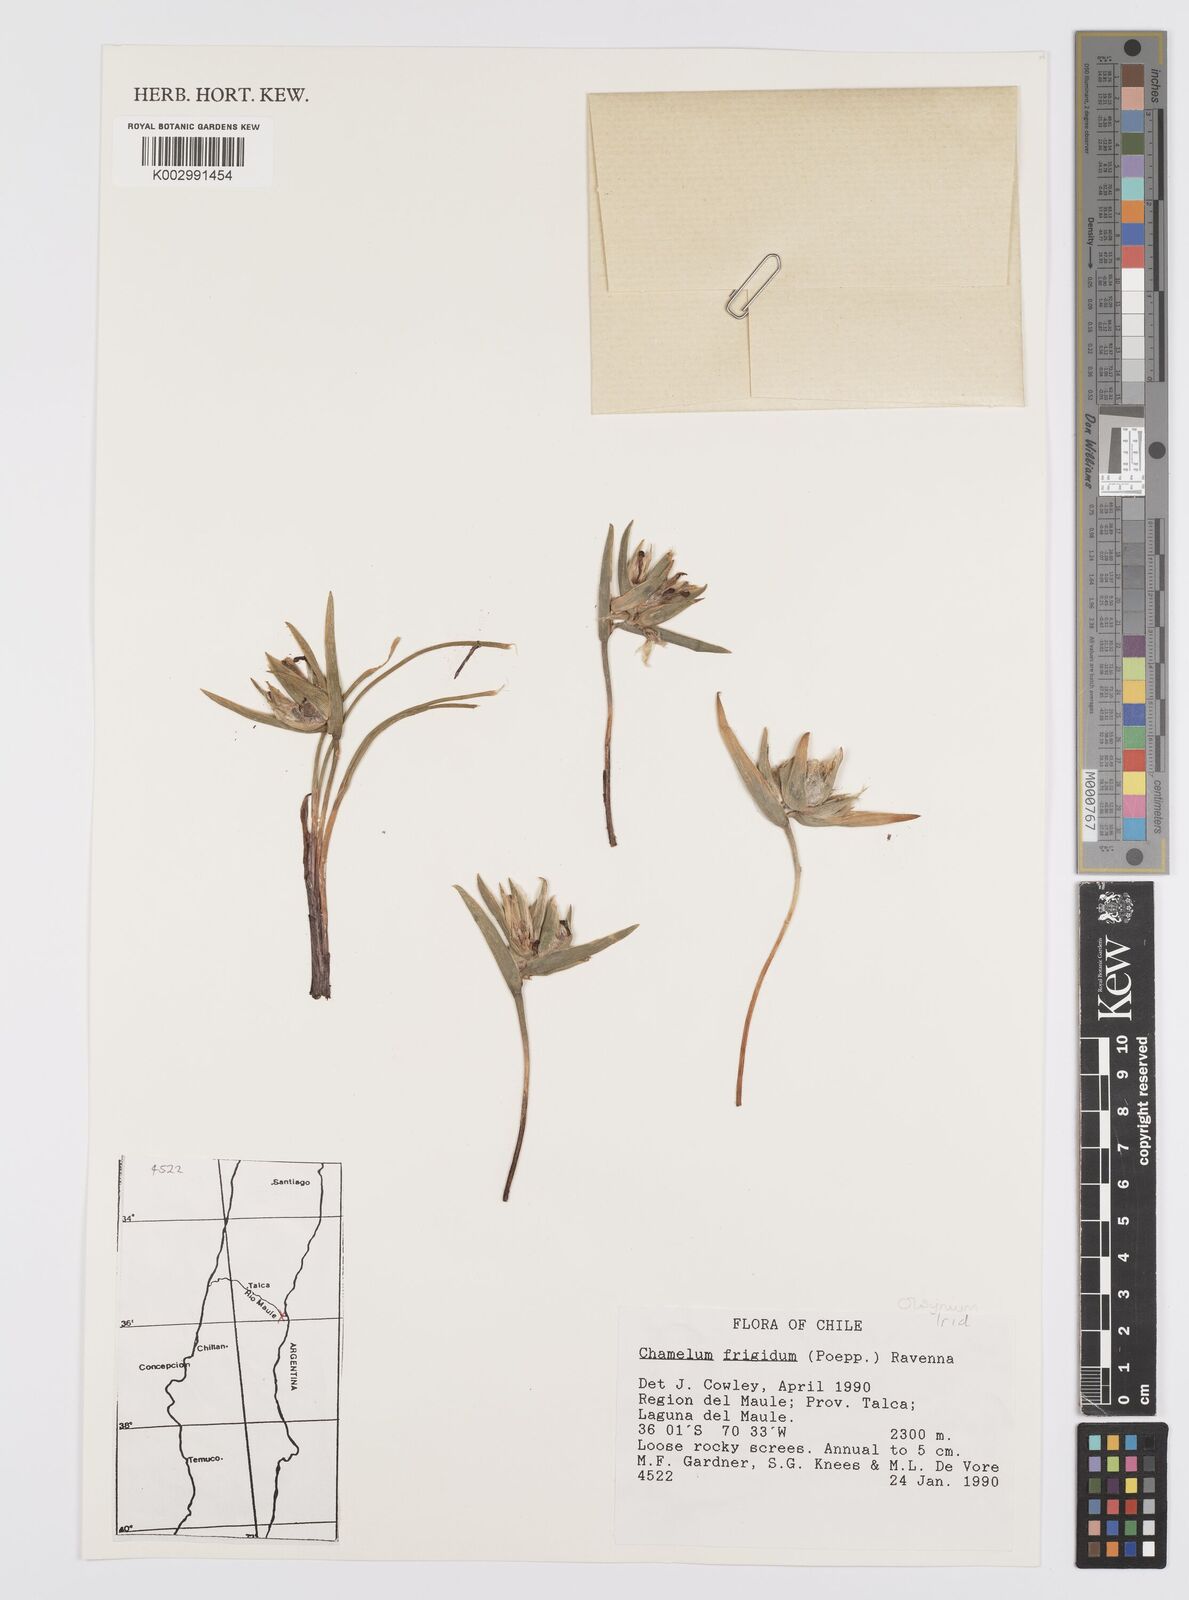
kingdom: Plantae
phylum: Tracheophyta
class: Liliopsida
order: Asparagales
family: Iridaceae
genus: Olsynium
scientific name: Olsynium obscurum
